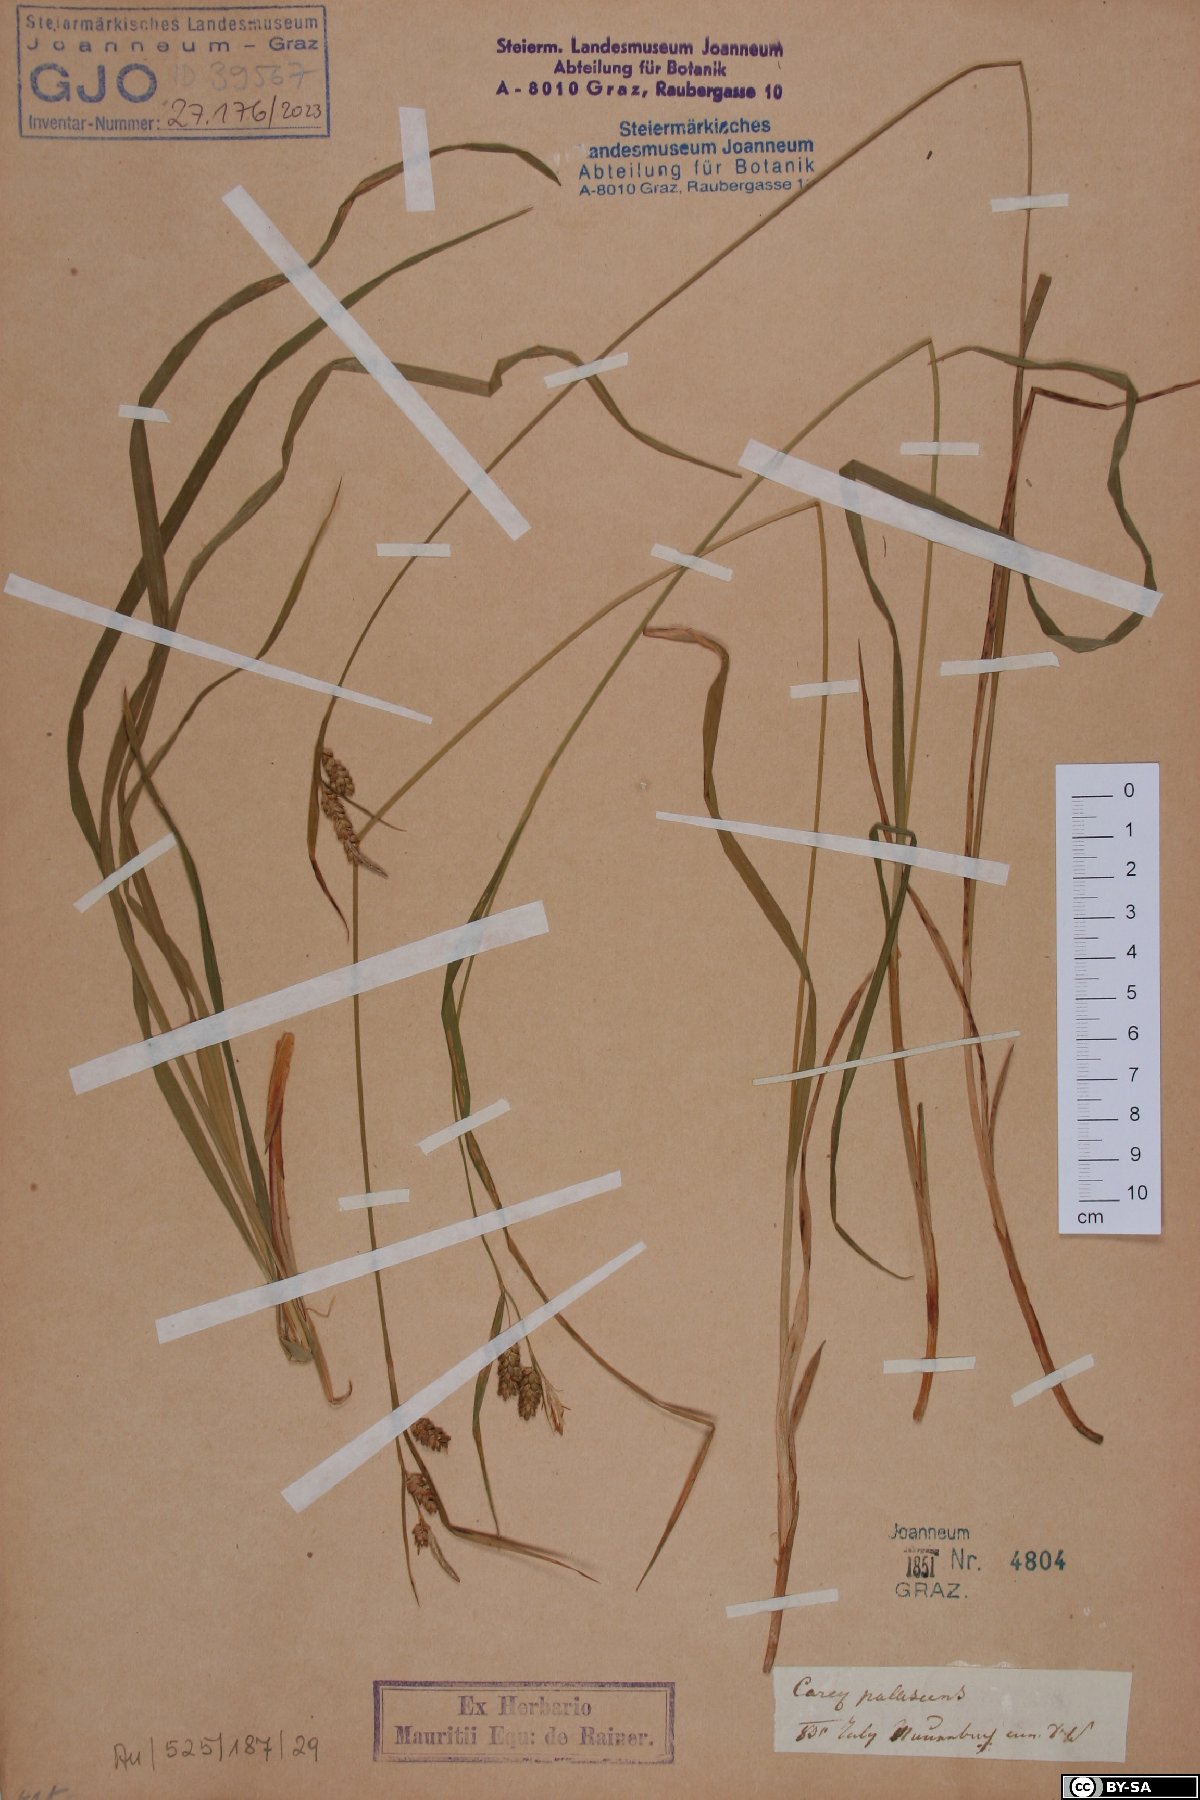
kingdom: Plantae
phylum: Tracheophyta
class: Liliopsida
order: Poales
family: Cyperaceae
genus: Carex
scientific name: Carex pallescens
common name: Pale sedge
